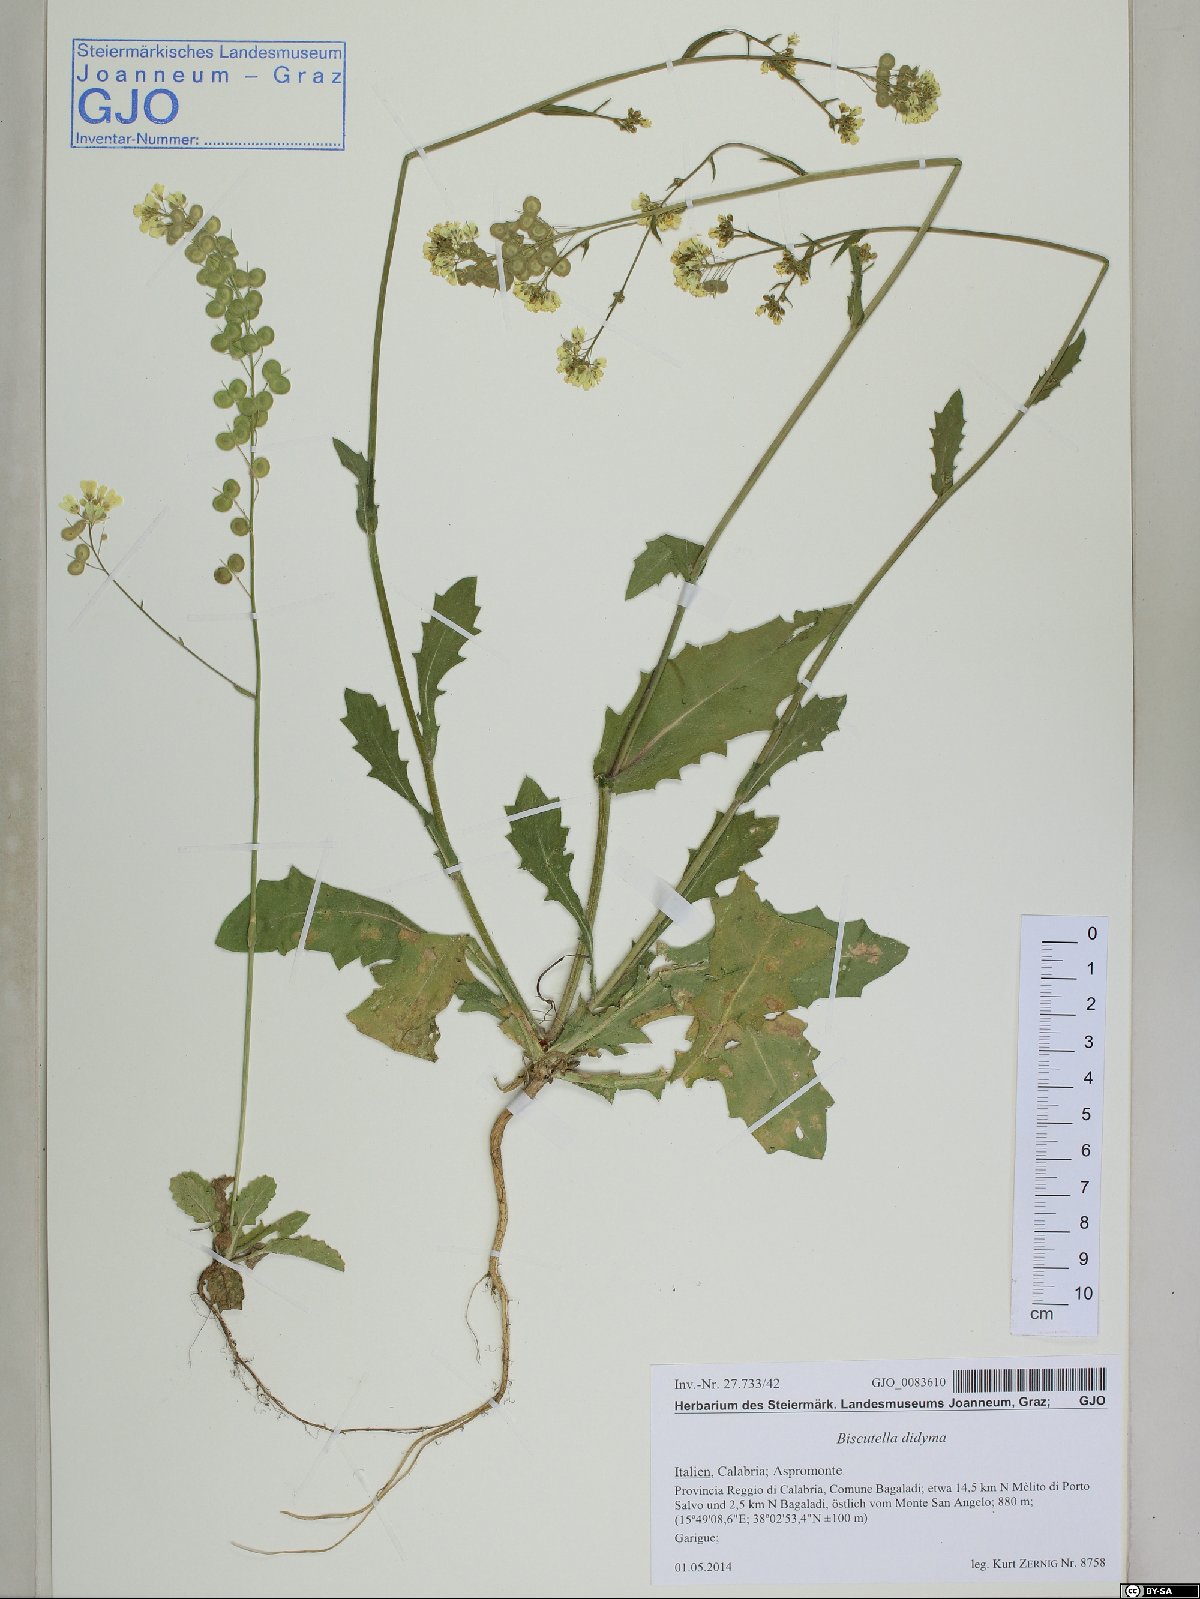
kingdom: Plantae
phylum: Tracheophyta
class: Magnoliopsida
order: Brassicales
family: Brassicaceae
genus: Biscutella
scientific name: Biscutella didyma
